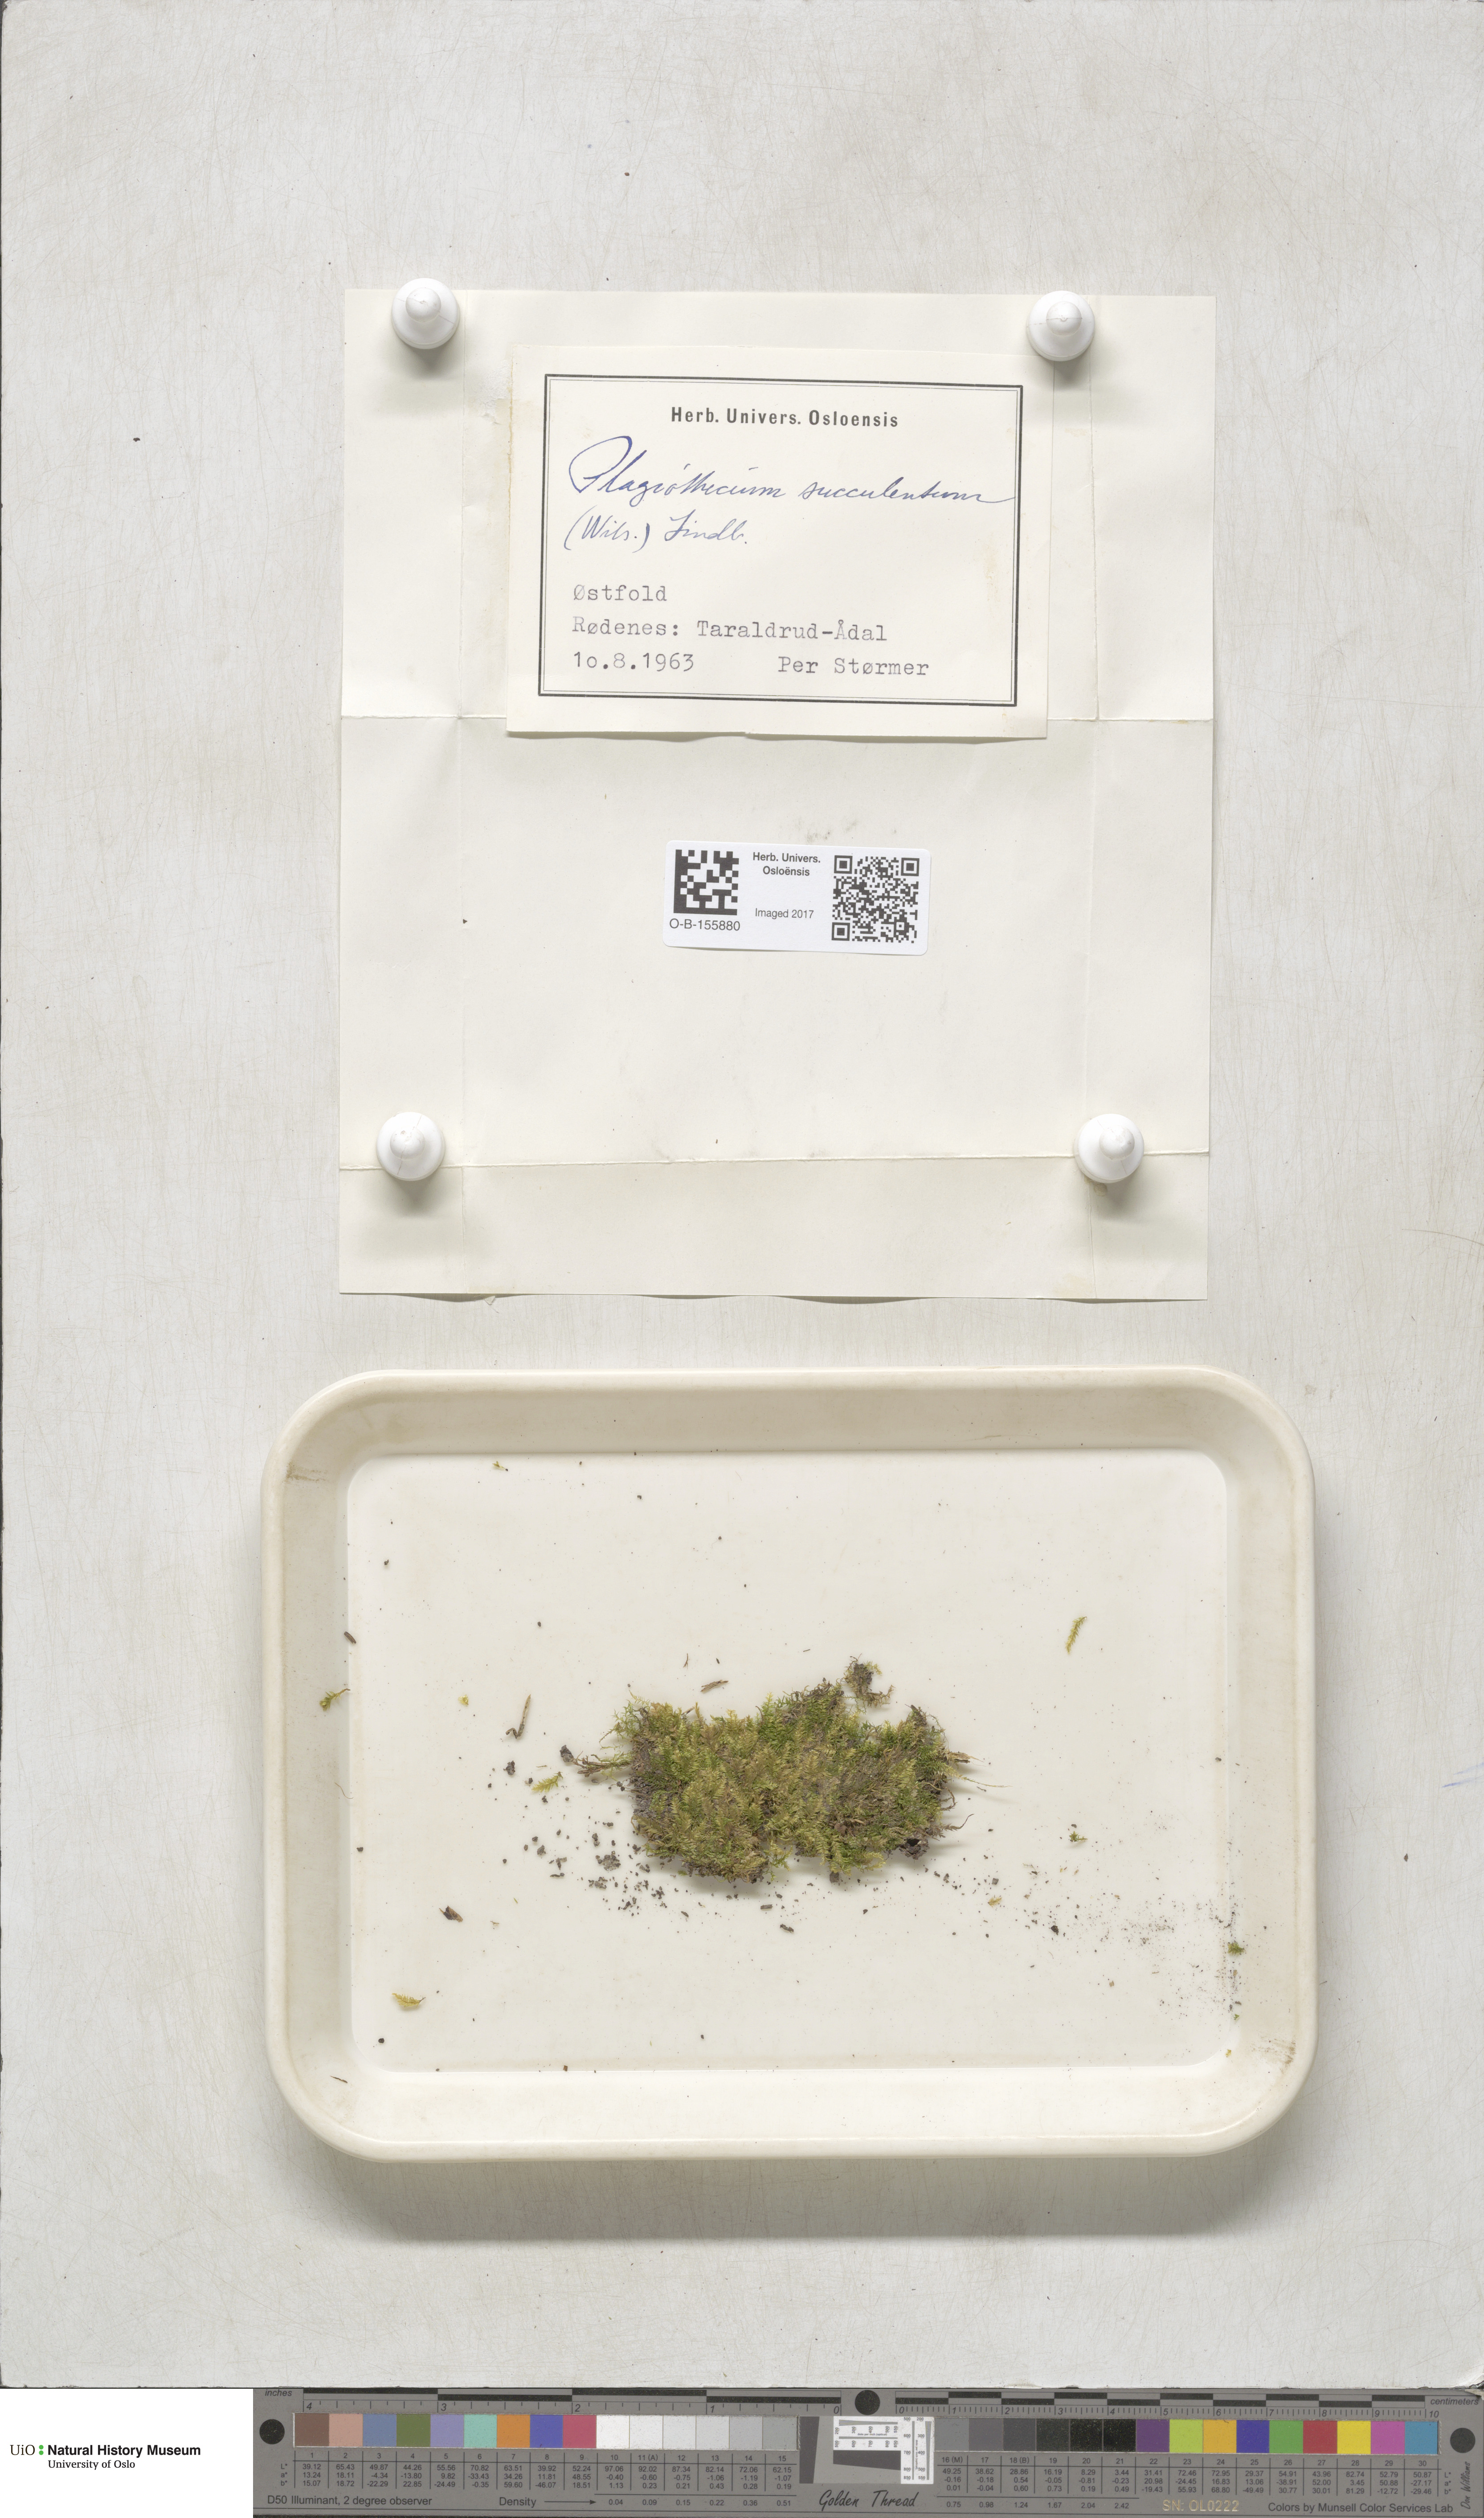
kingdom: Plantae
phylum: Bryophyta
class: Bryopsida
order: Hypnales
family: Plagiotheciaceae
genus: Plagiothecium
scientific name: Plagiothecium succulentum
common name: Juicy silk-moss
